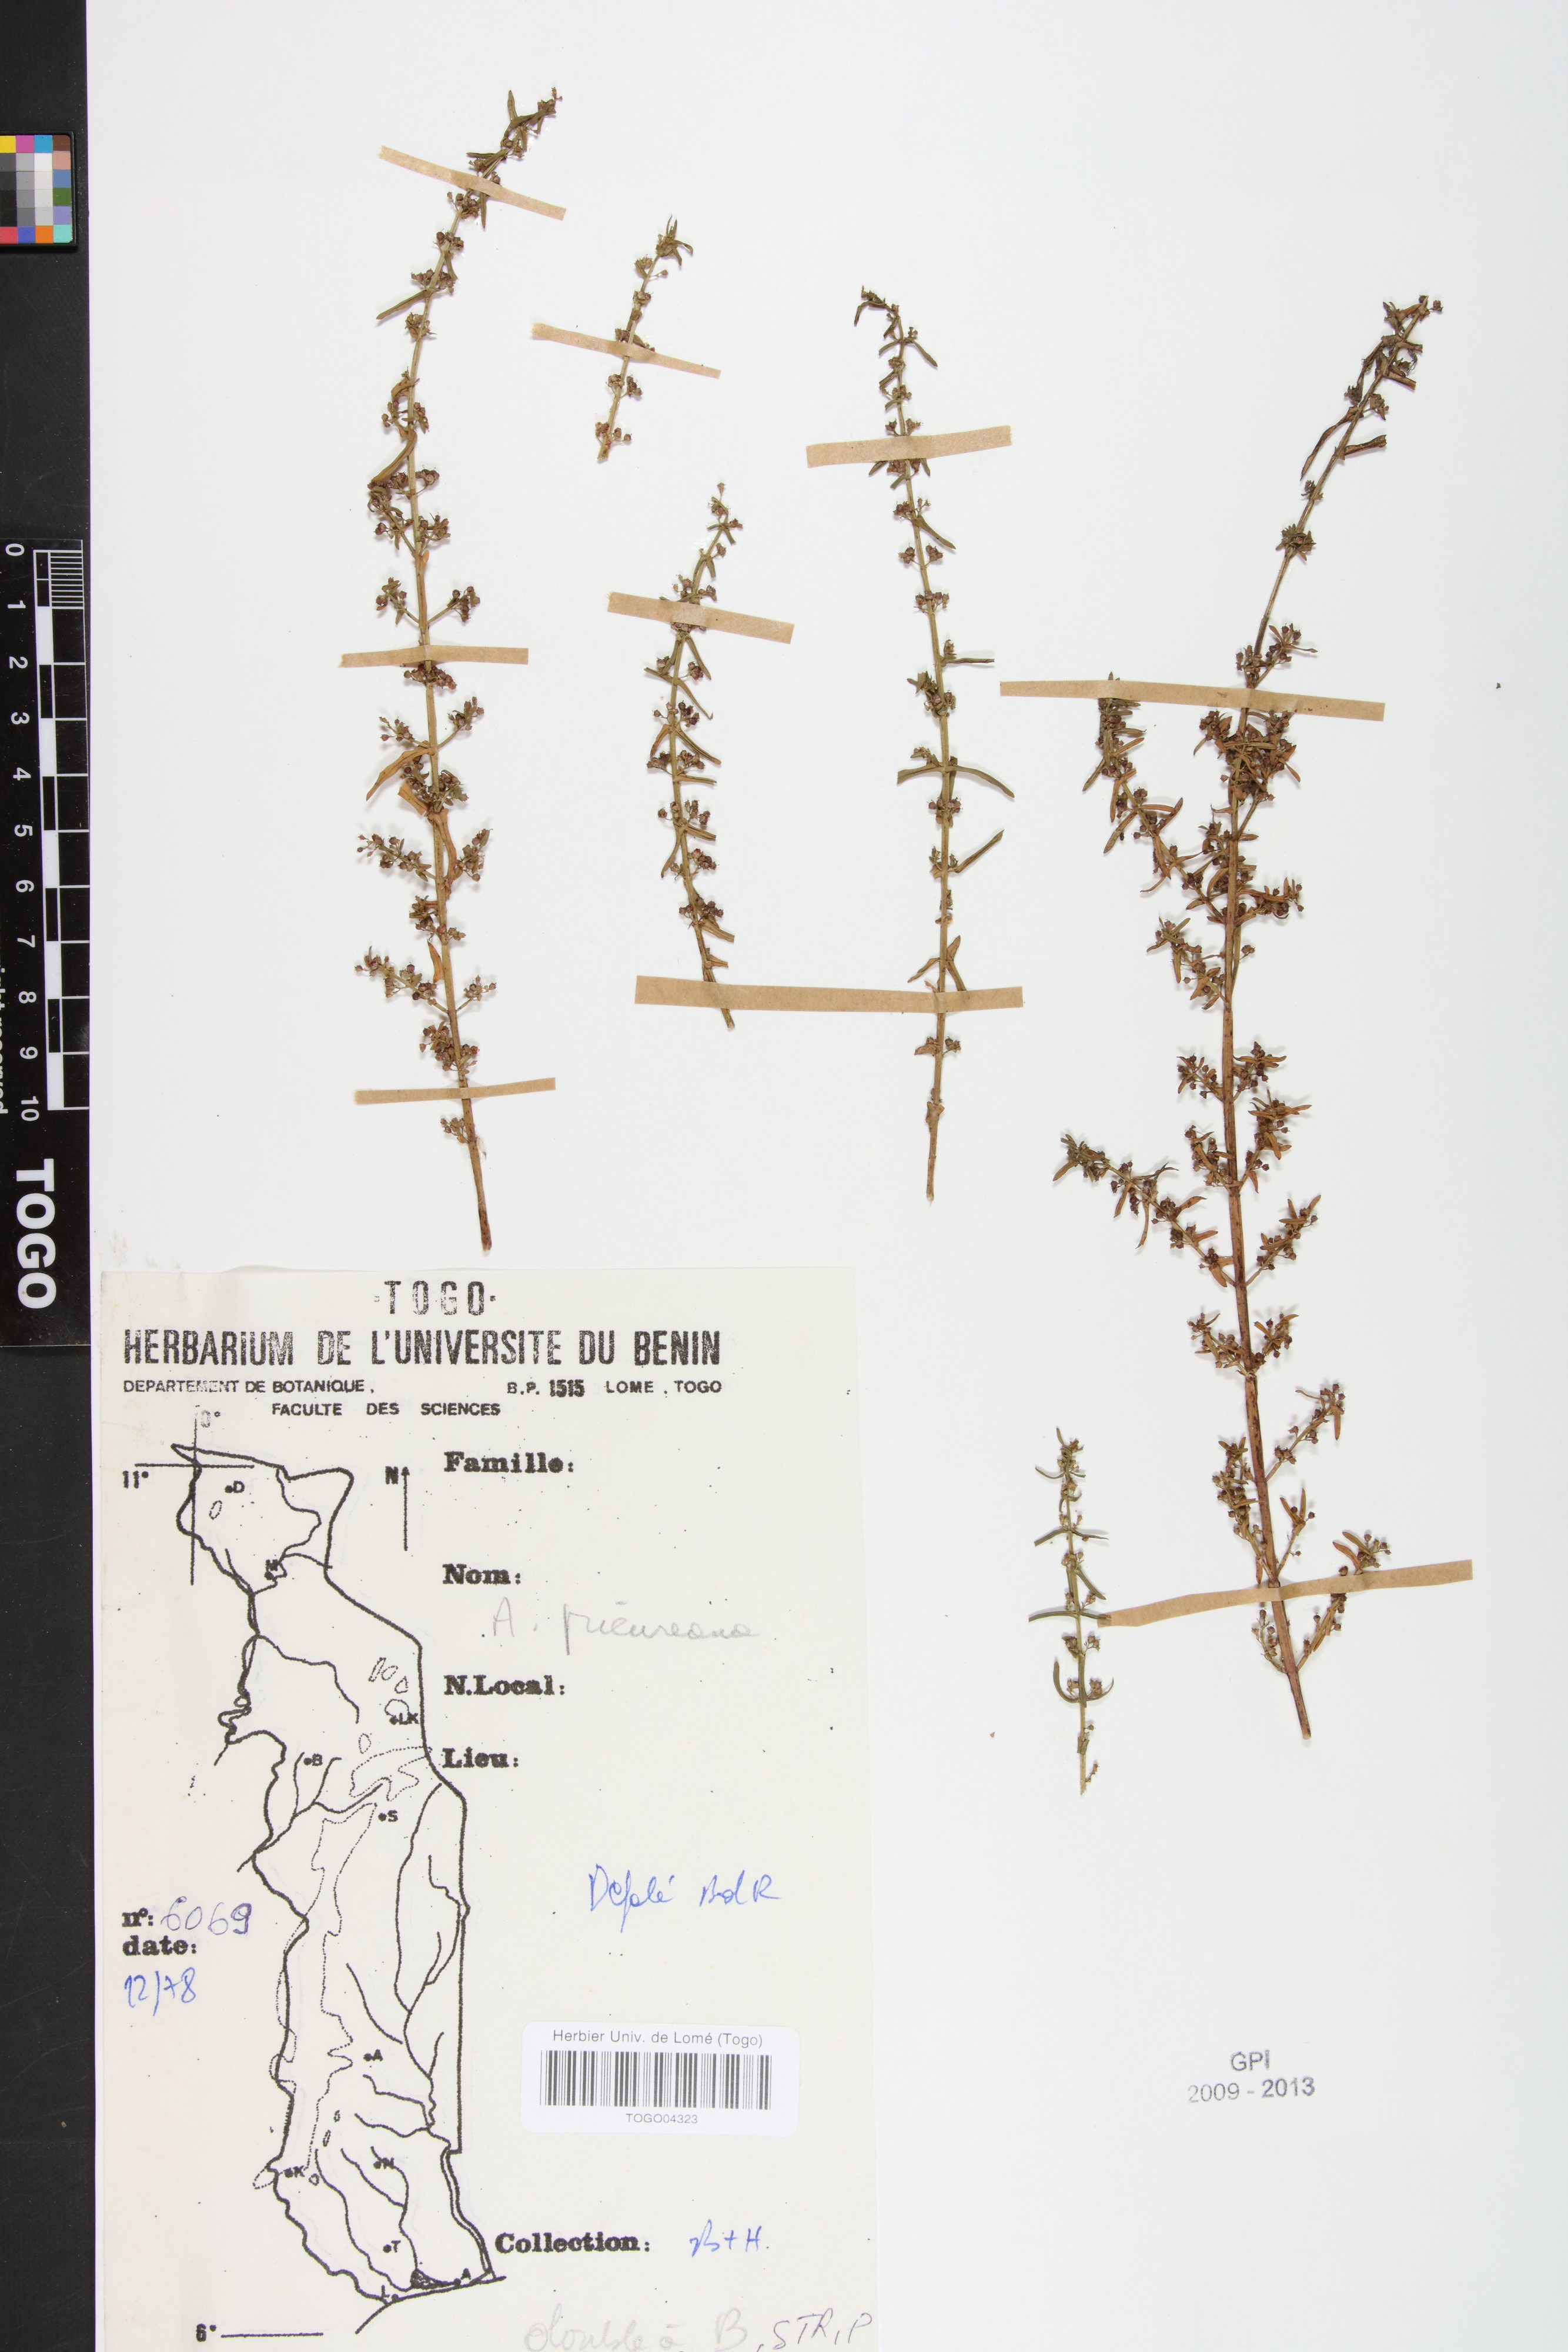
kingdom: Plantae
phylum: Tracheophyta
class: Magnoliopsida
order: Myrtales
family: Lythraceae
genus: Ammannia
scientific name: Ammannia prieureana
